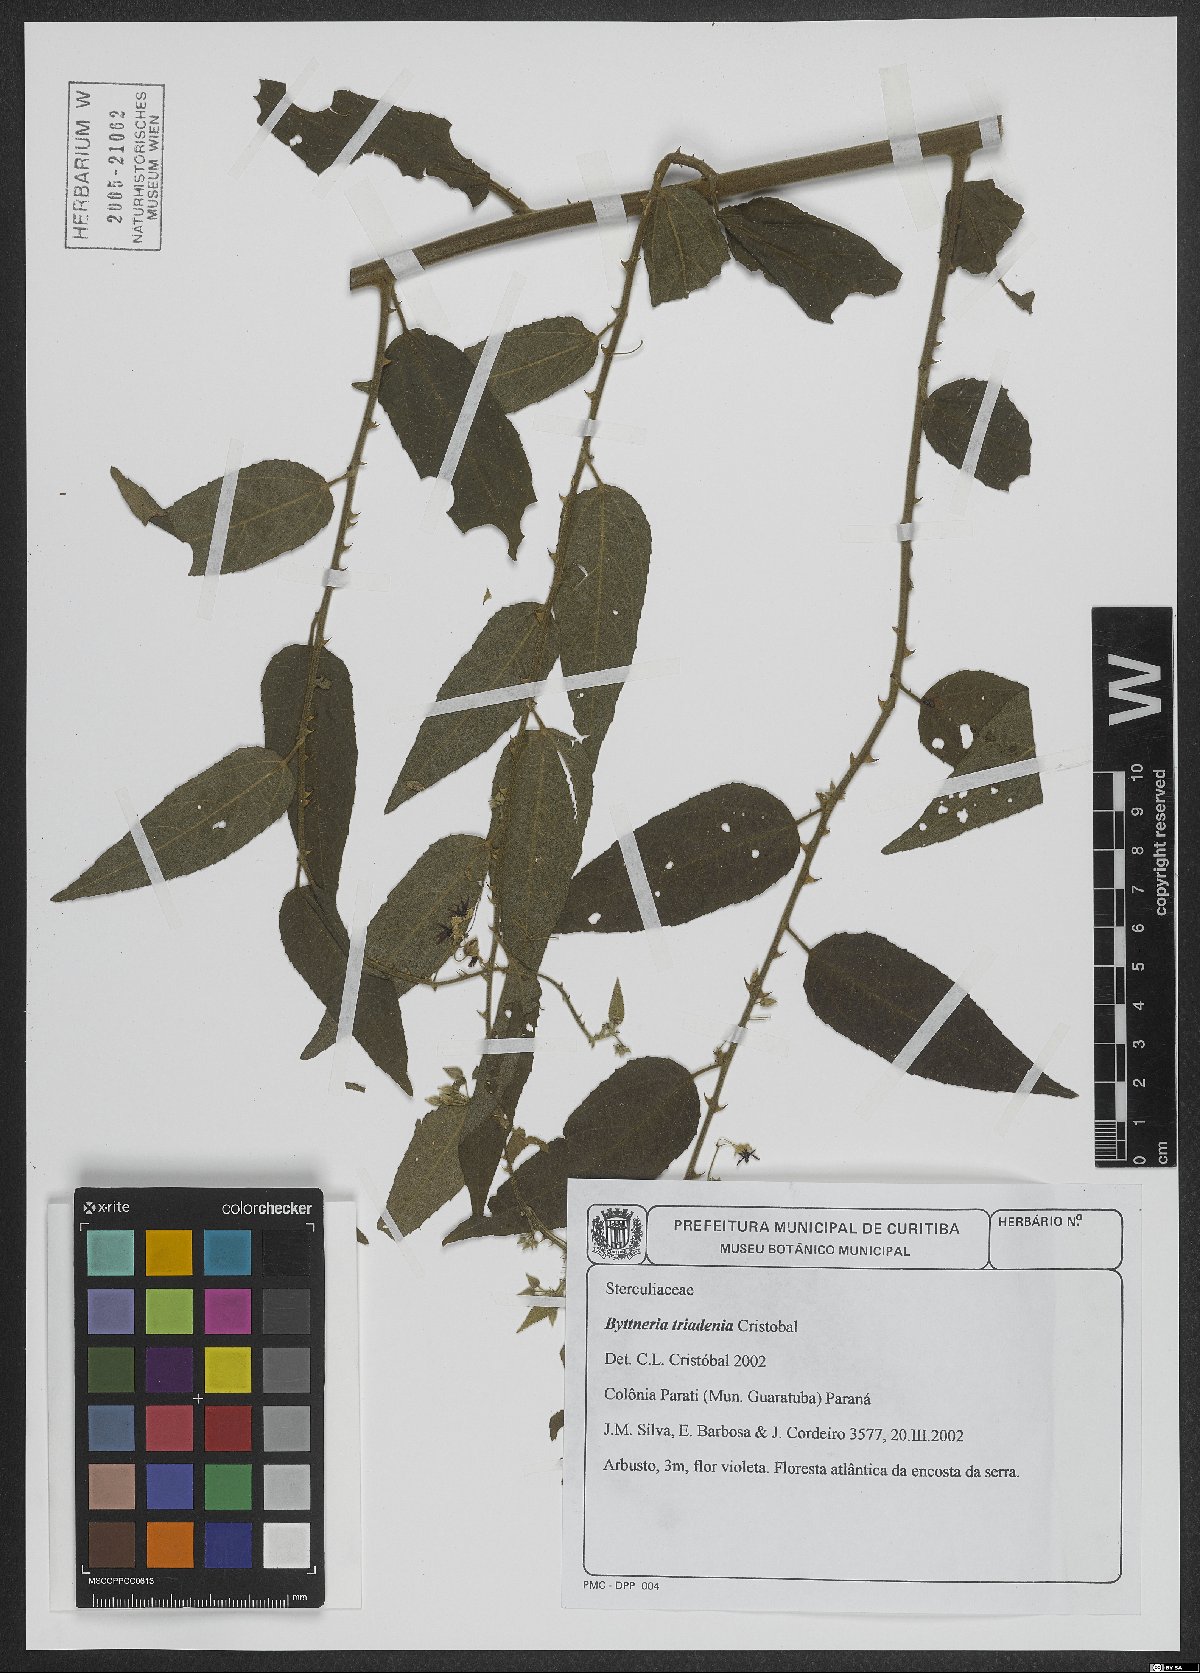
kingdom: Plantae
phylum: Tracheophyta
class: Magnoliopsida
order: Malvales
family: Malvaceae
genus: Byttneria
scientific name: Byttneria triadenia
